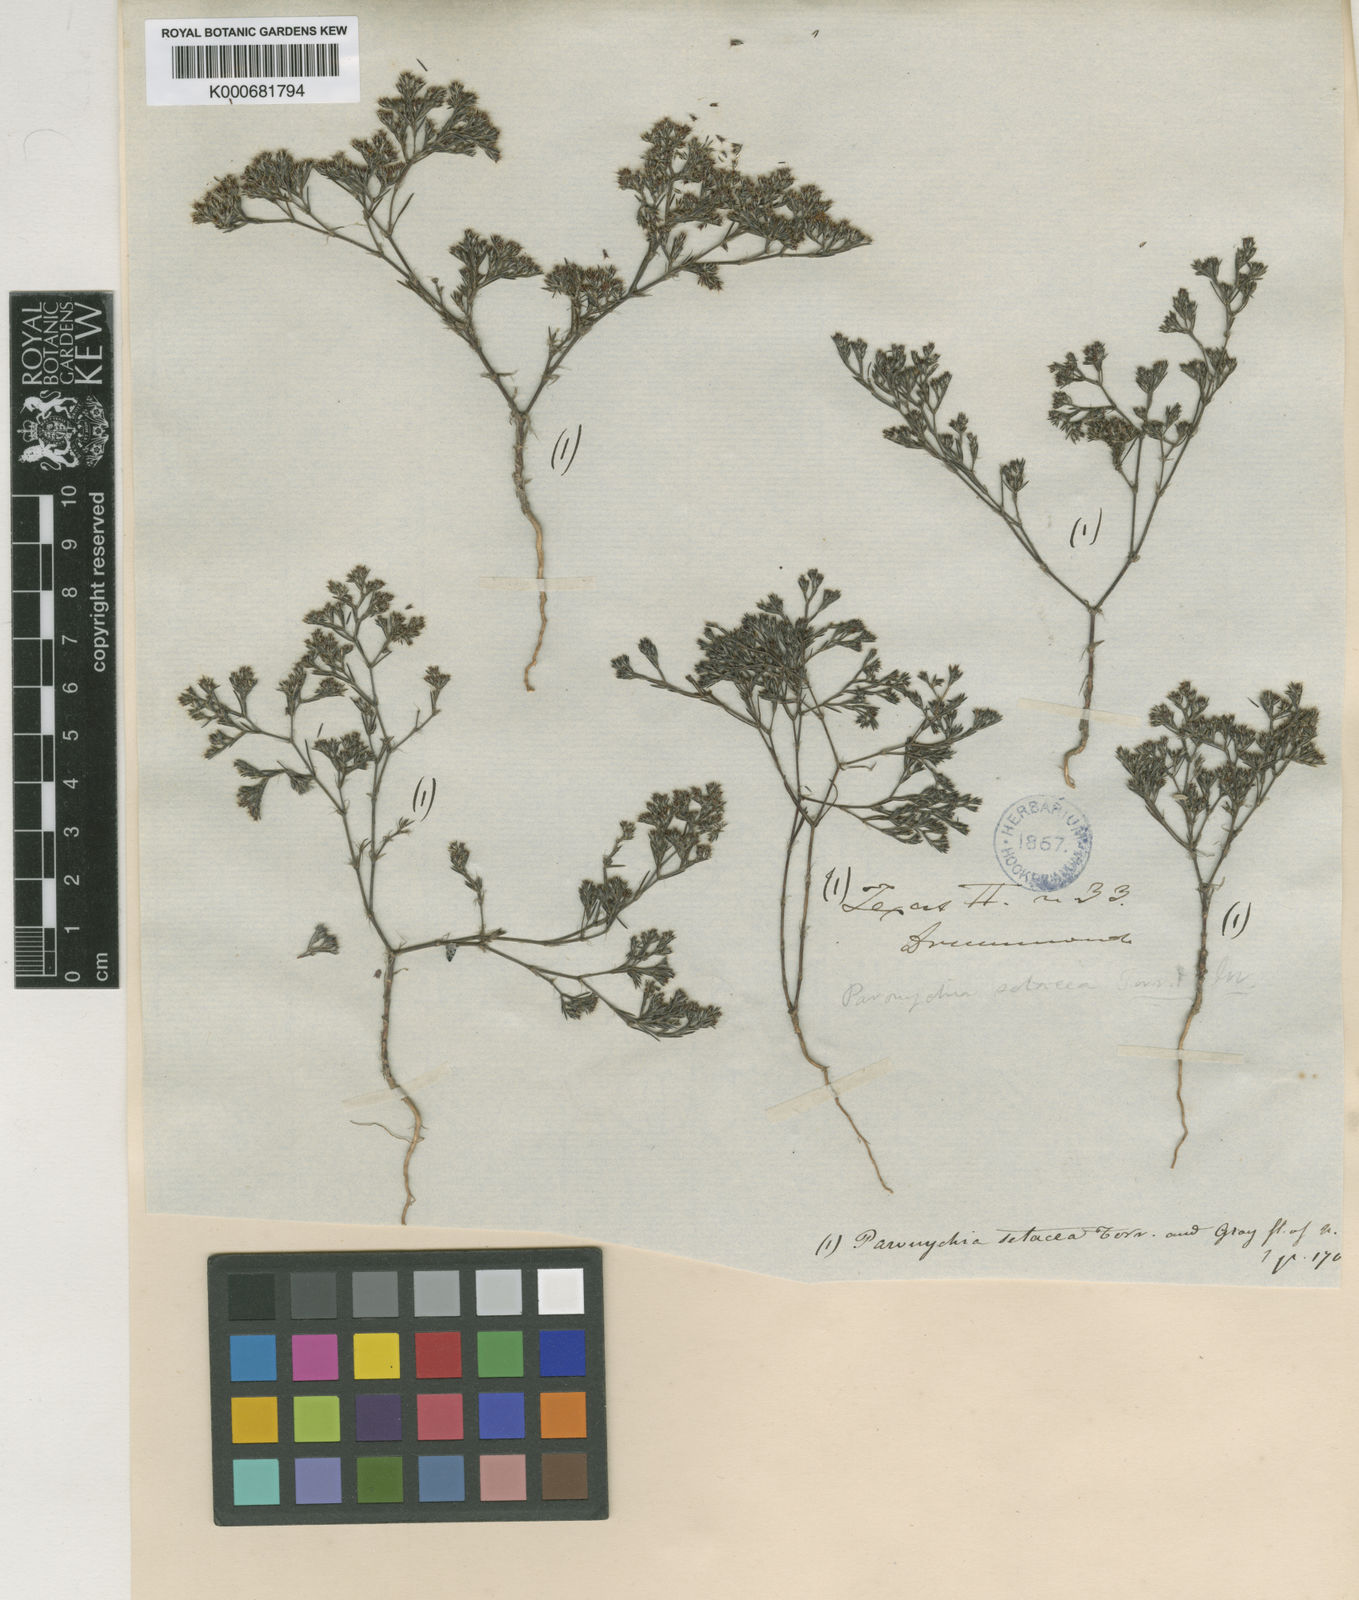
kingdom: Plantae
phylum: Tracheophyta
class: Magnoliopsida
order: Caryophyllales
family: Caryophyllaceae
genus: Paronychia
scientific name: Paronychia setacea
